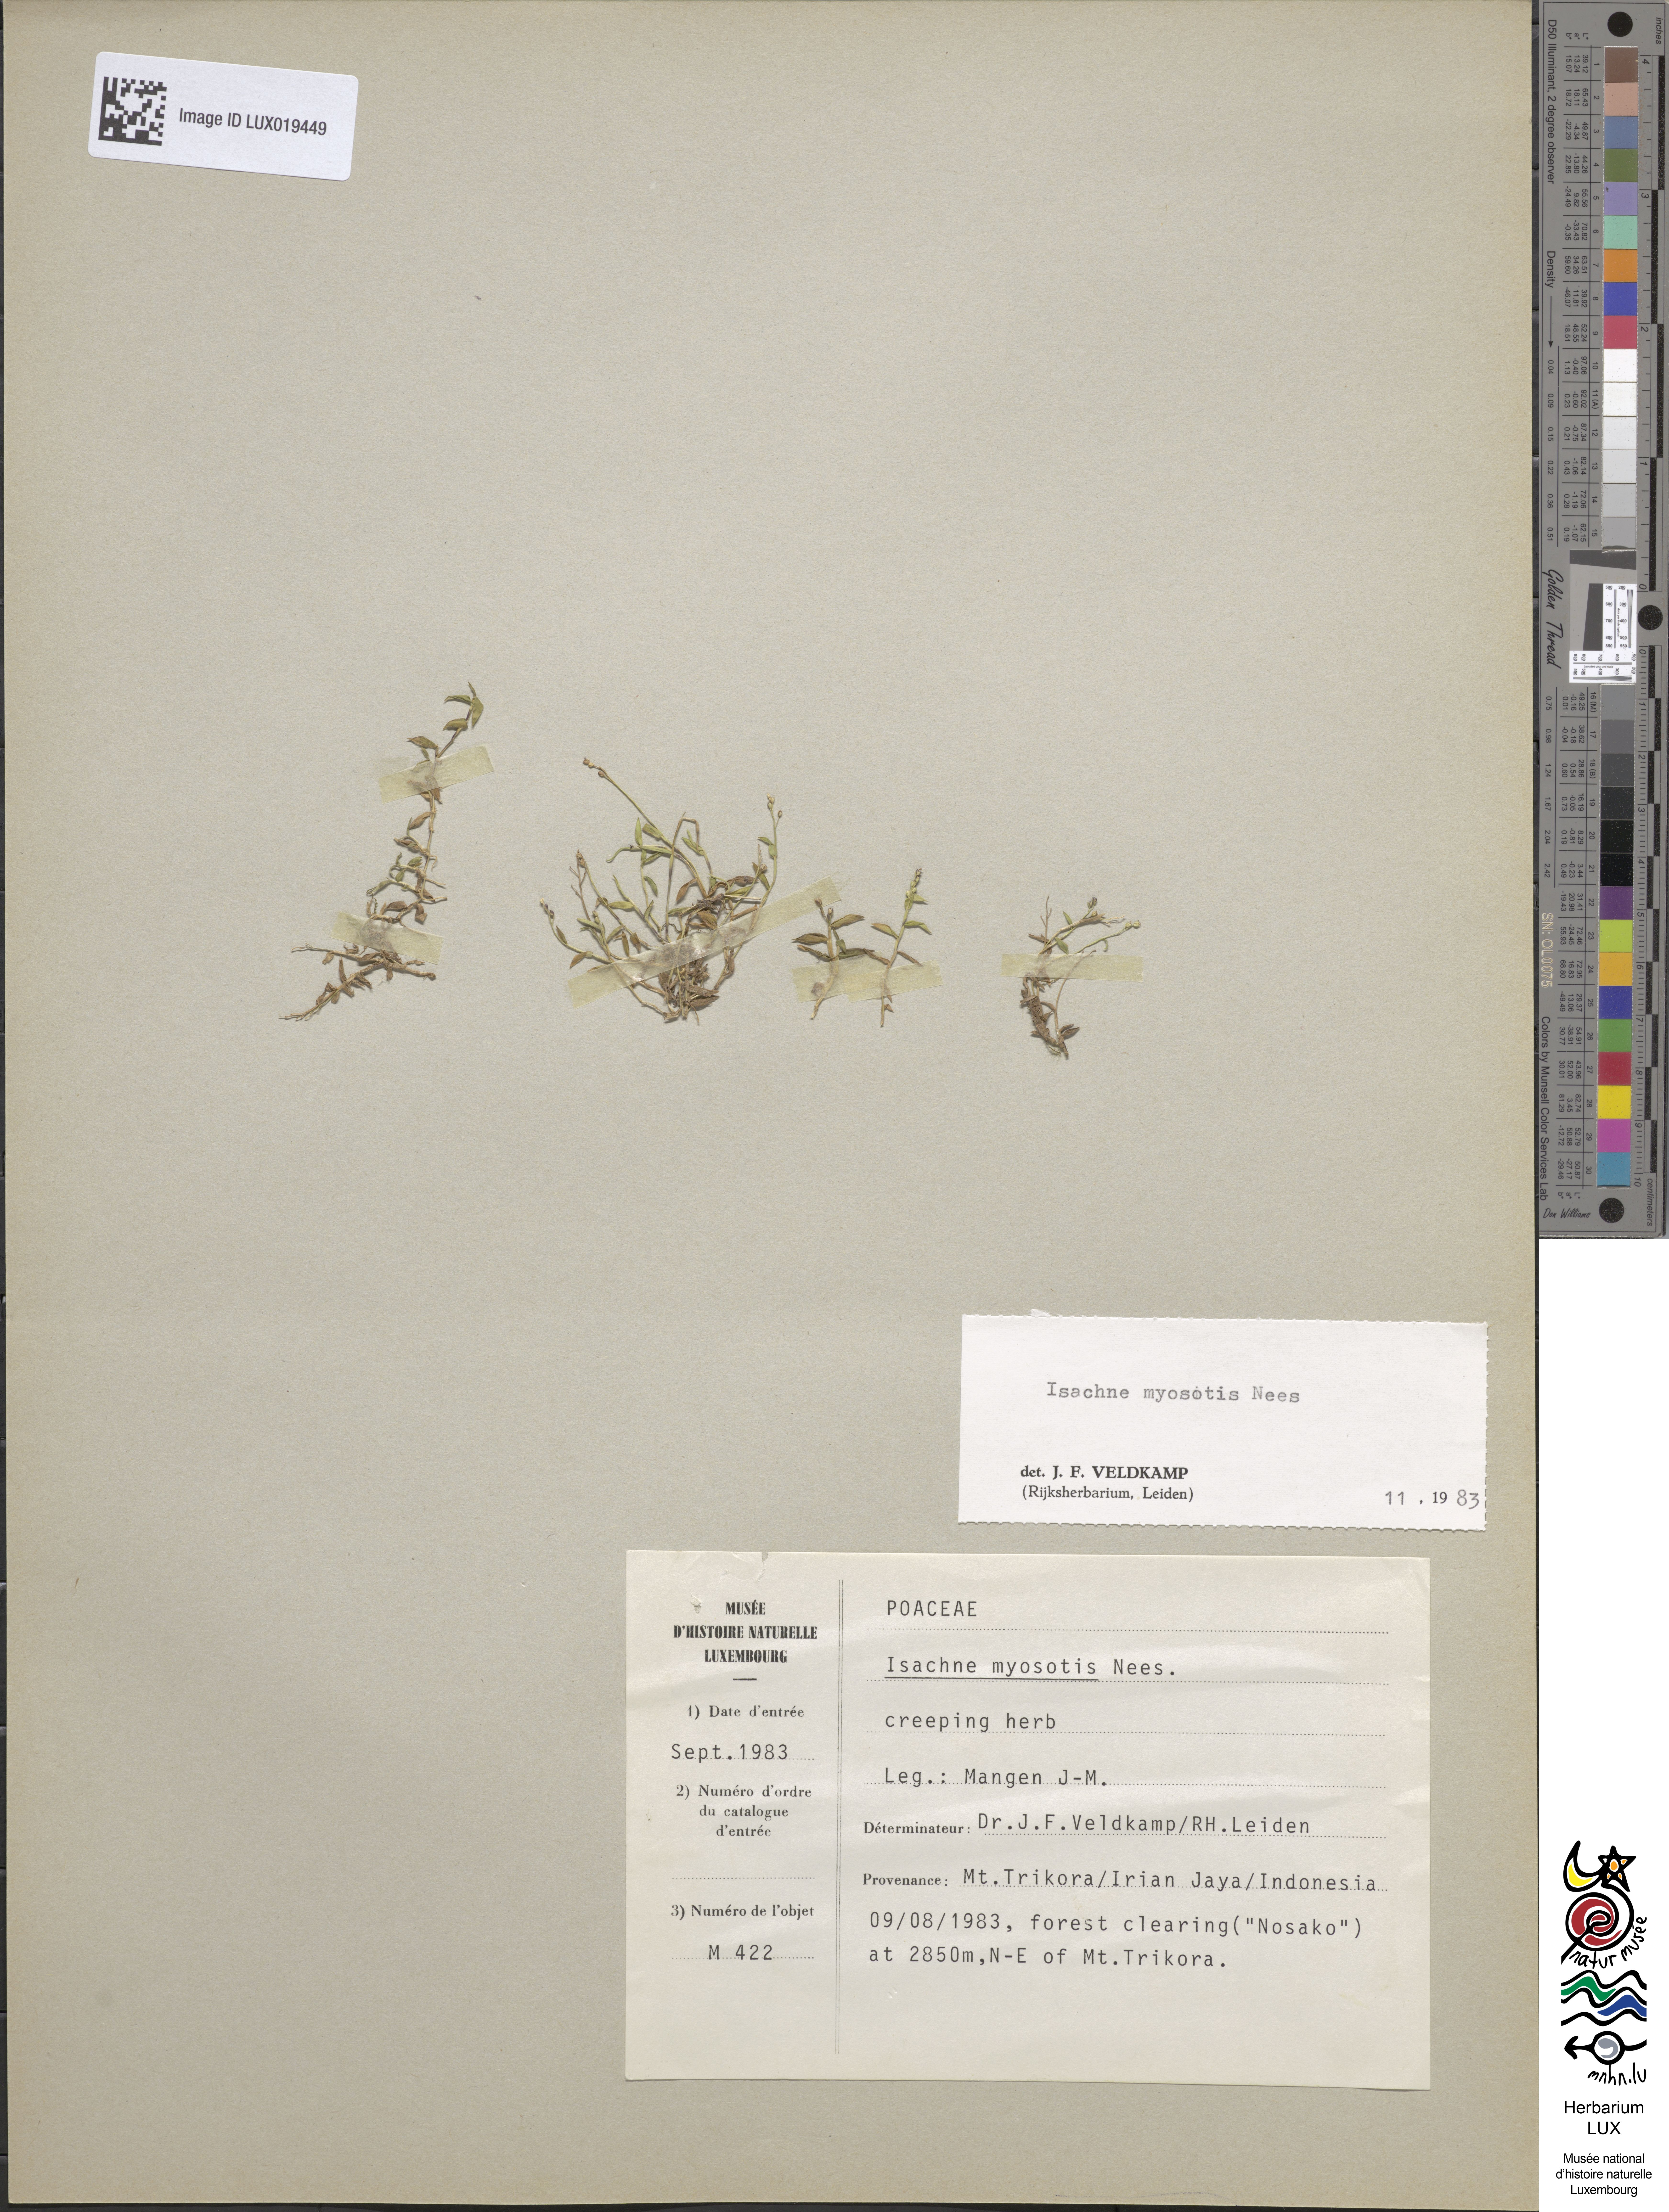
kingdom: Plantae
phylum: Tracheophyta
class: Liliopsida
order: Poales
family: Poaceae
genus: Isachne
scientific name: Isachne myosotis
